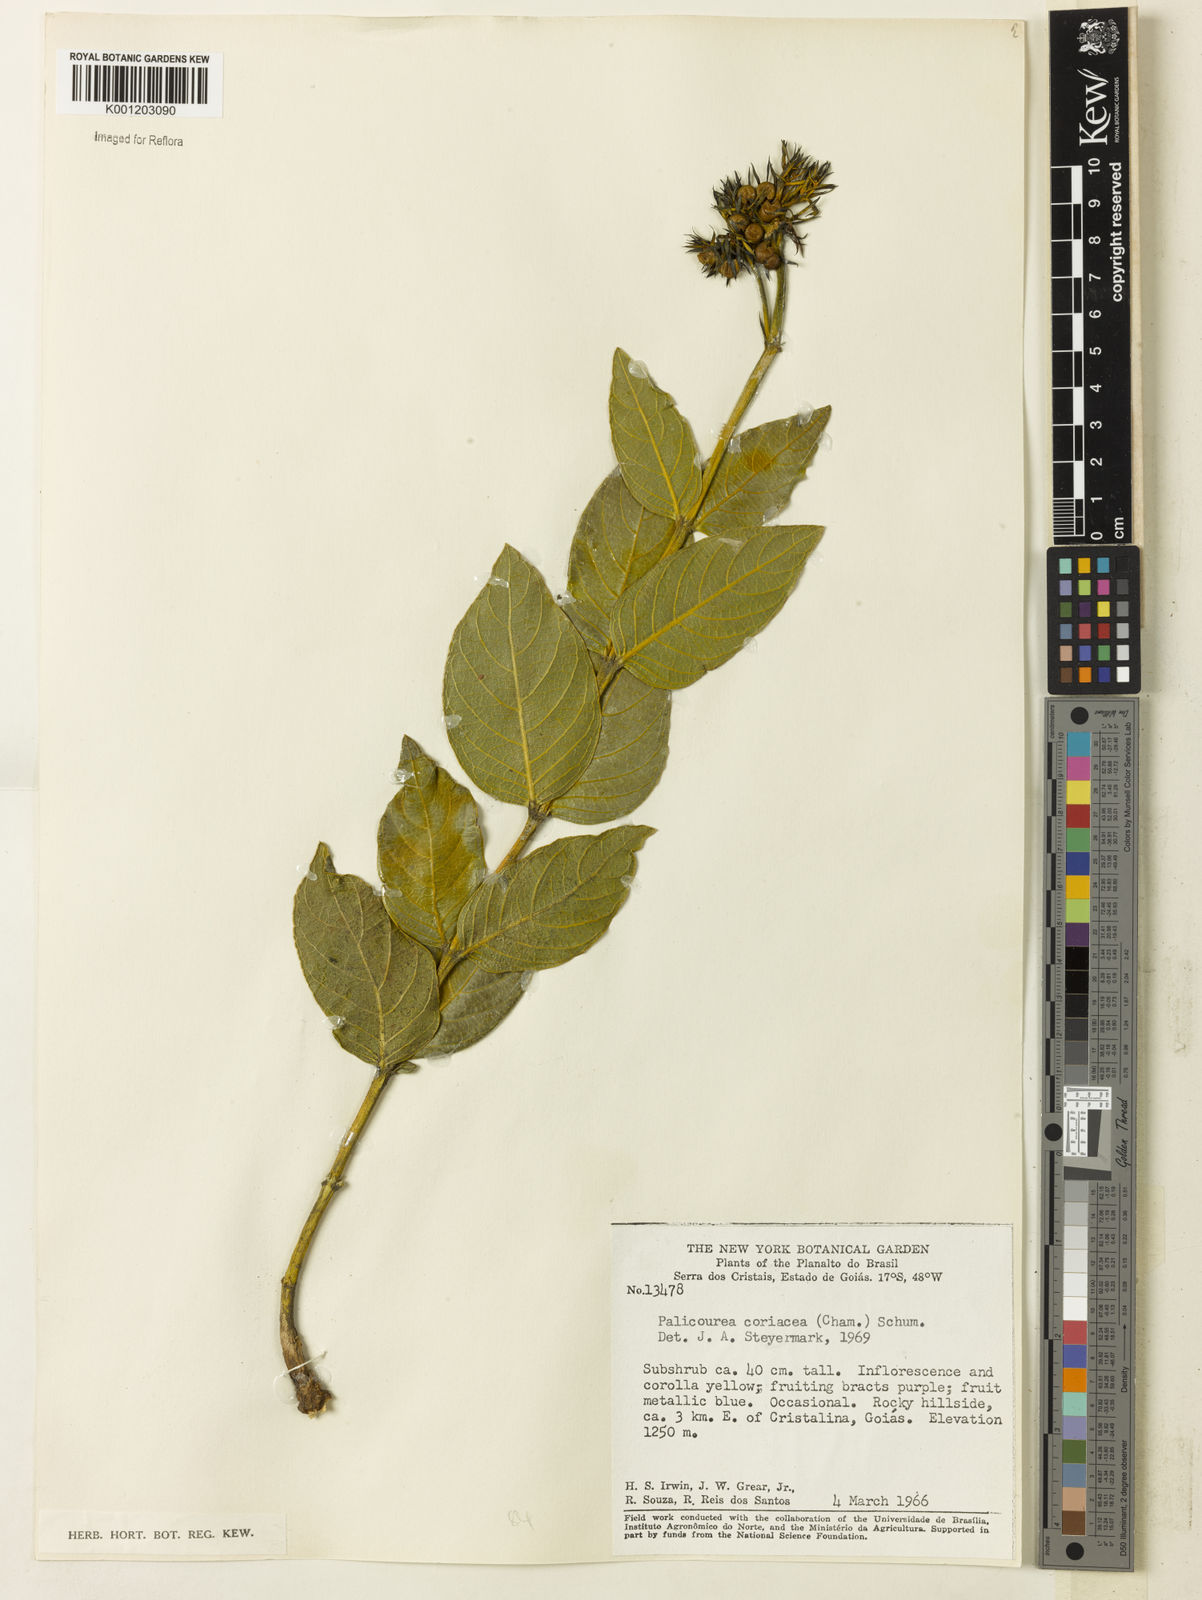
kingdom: Plantae
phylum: Tracheophyta
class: Magnoliopsida
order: Gentianales
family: Rubiaceae
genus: Palicourea
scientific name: Palicourea coriacea
